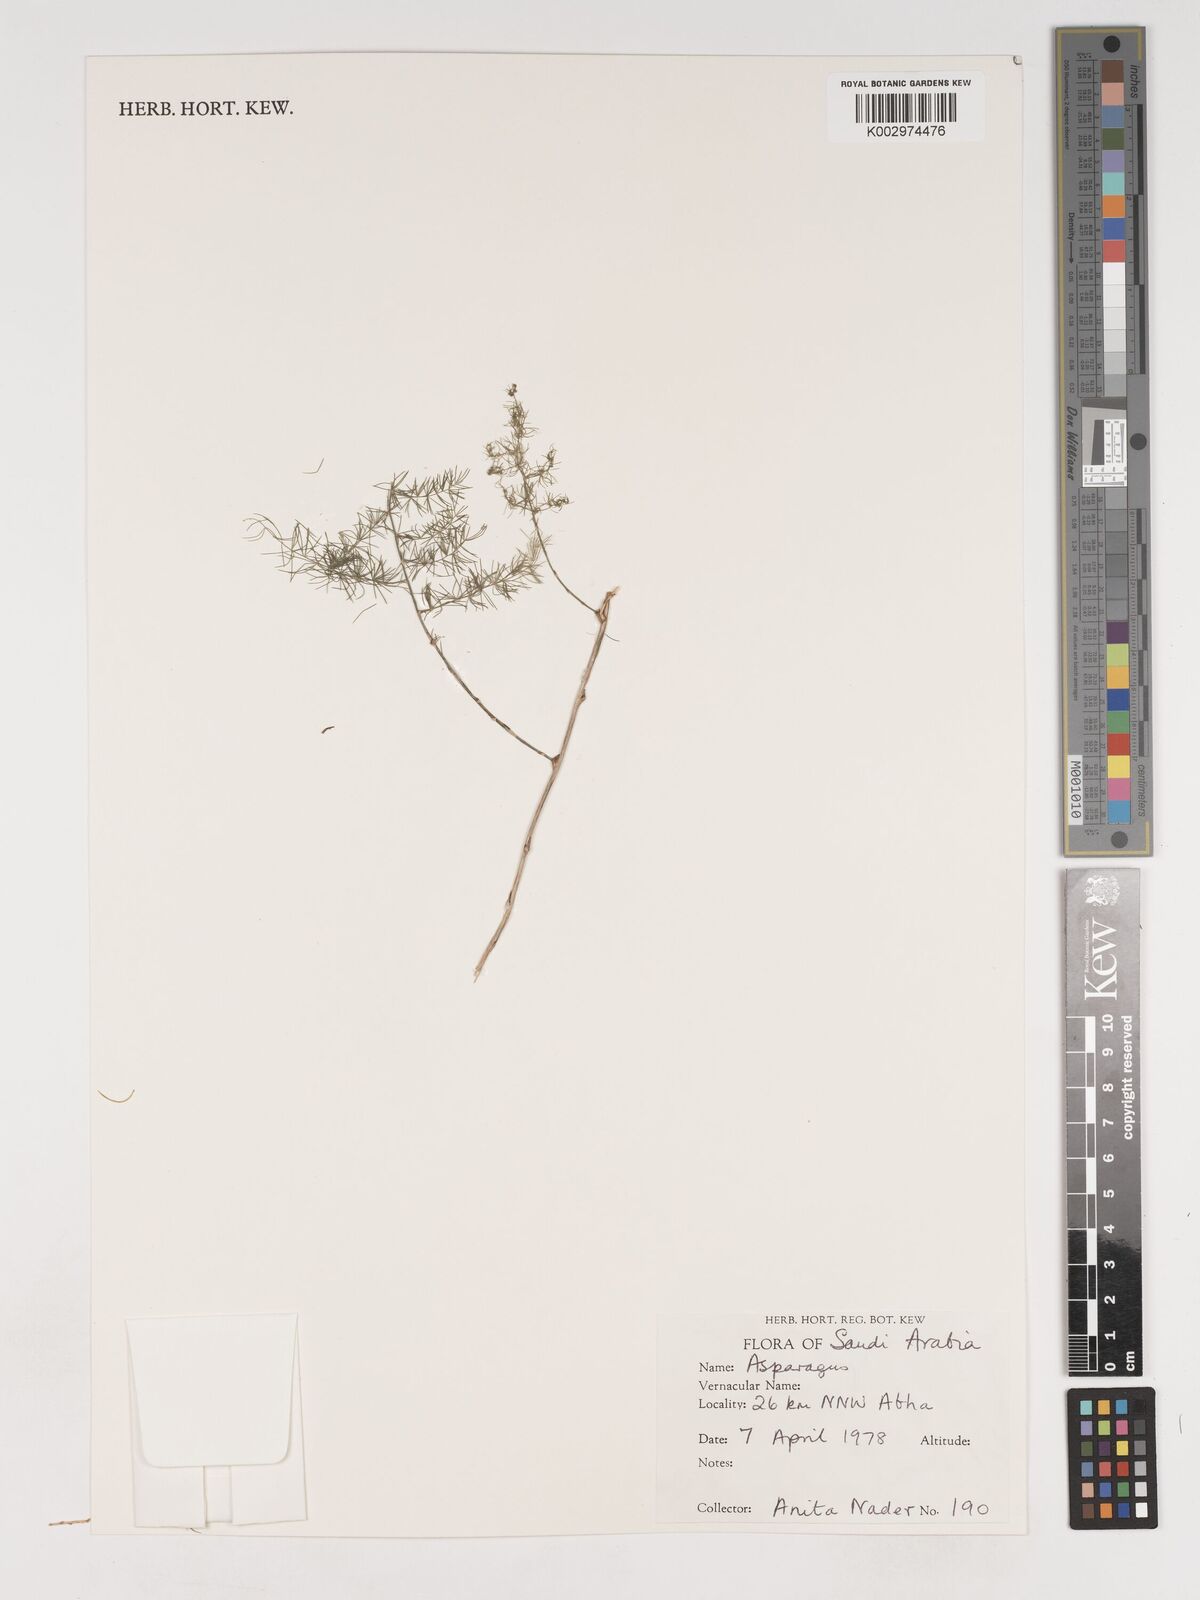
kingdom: Plantae
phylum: Tracheophyta
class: Liliopsida
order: Asparagales
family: Asparagaceae
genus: Asparagus
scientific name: Asparagus
